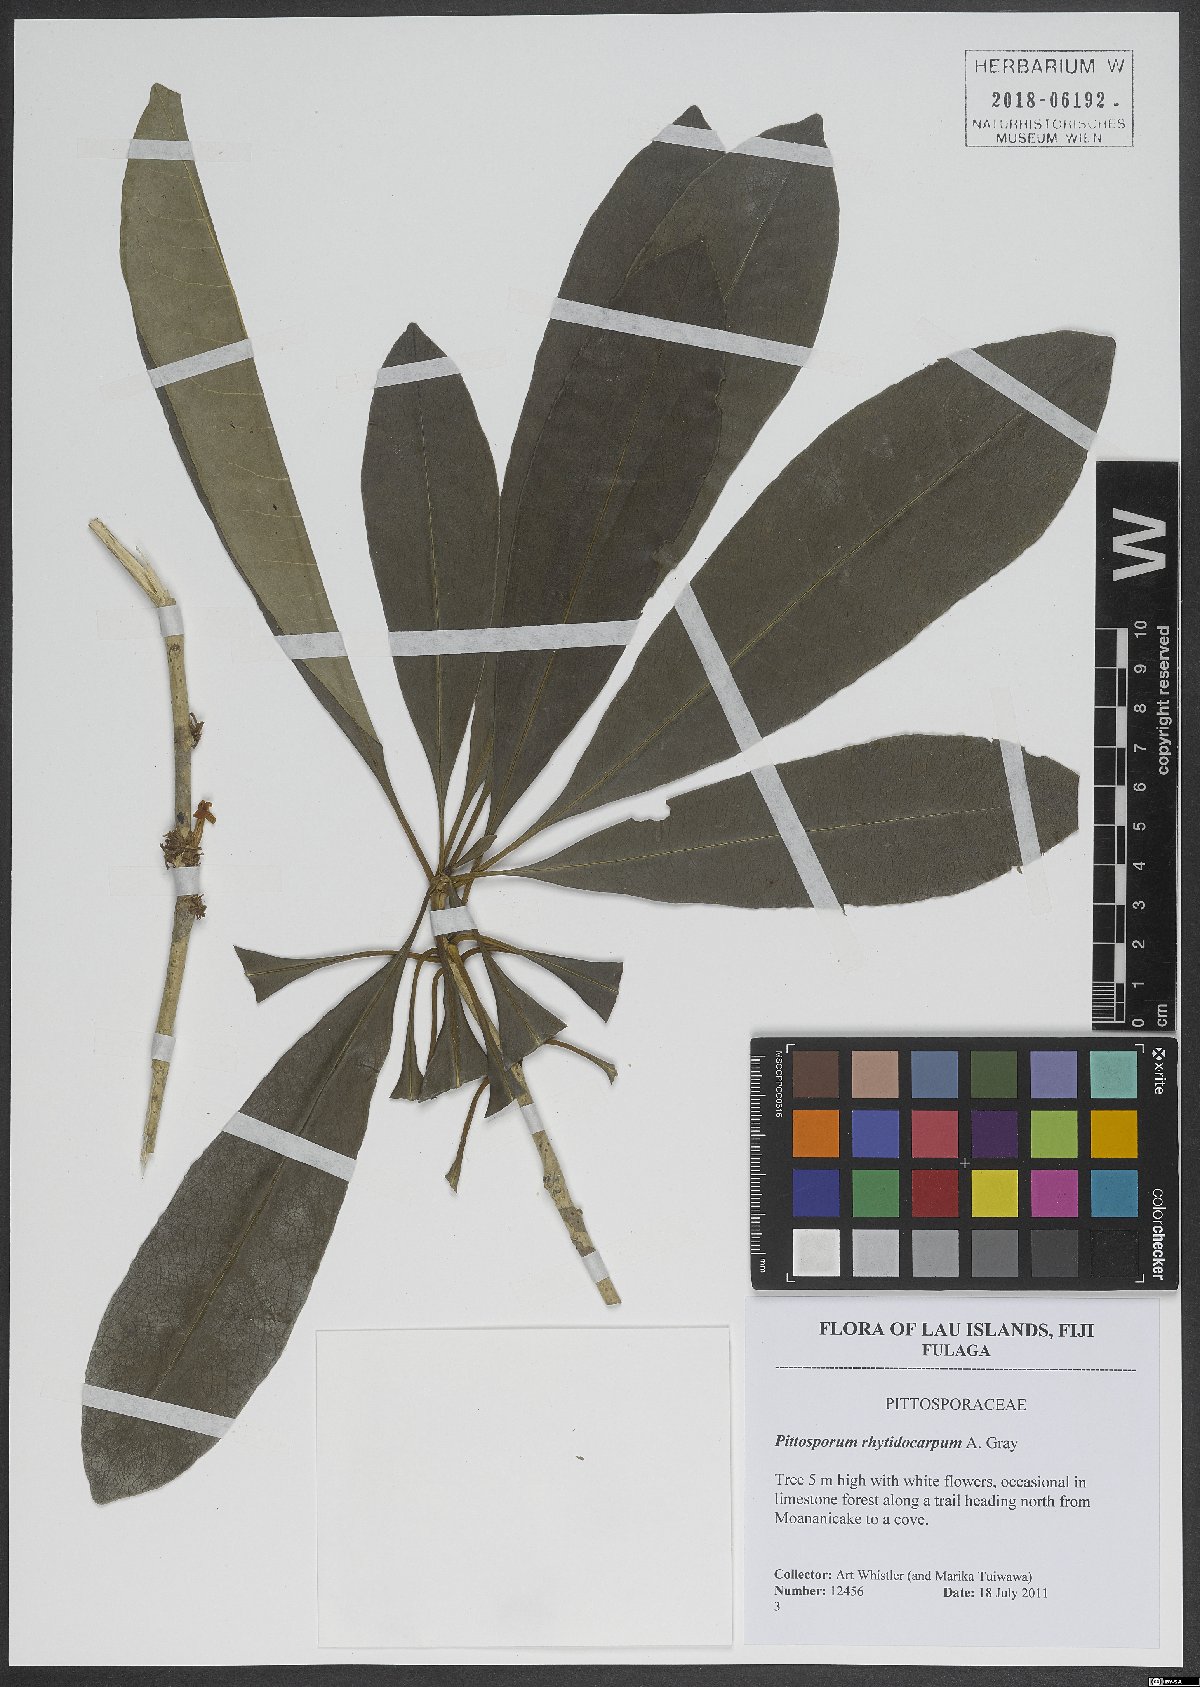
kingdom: Plantae
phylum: Tracheophyta
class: Magnoliopsida
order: Apiales
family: Pittosporaceae
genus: Pittosporum
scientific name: Pittosporum rhytidocarpum
